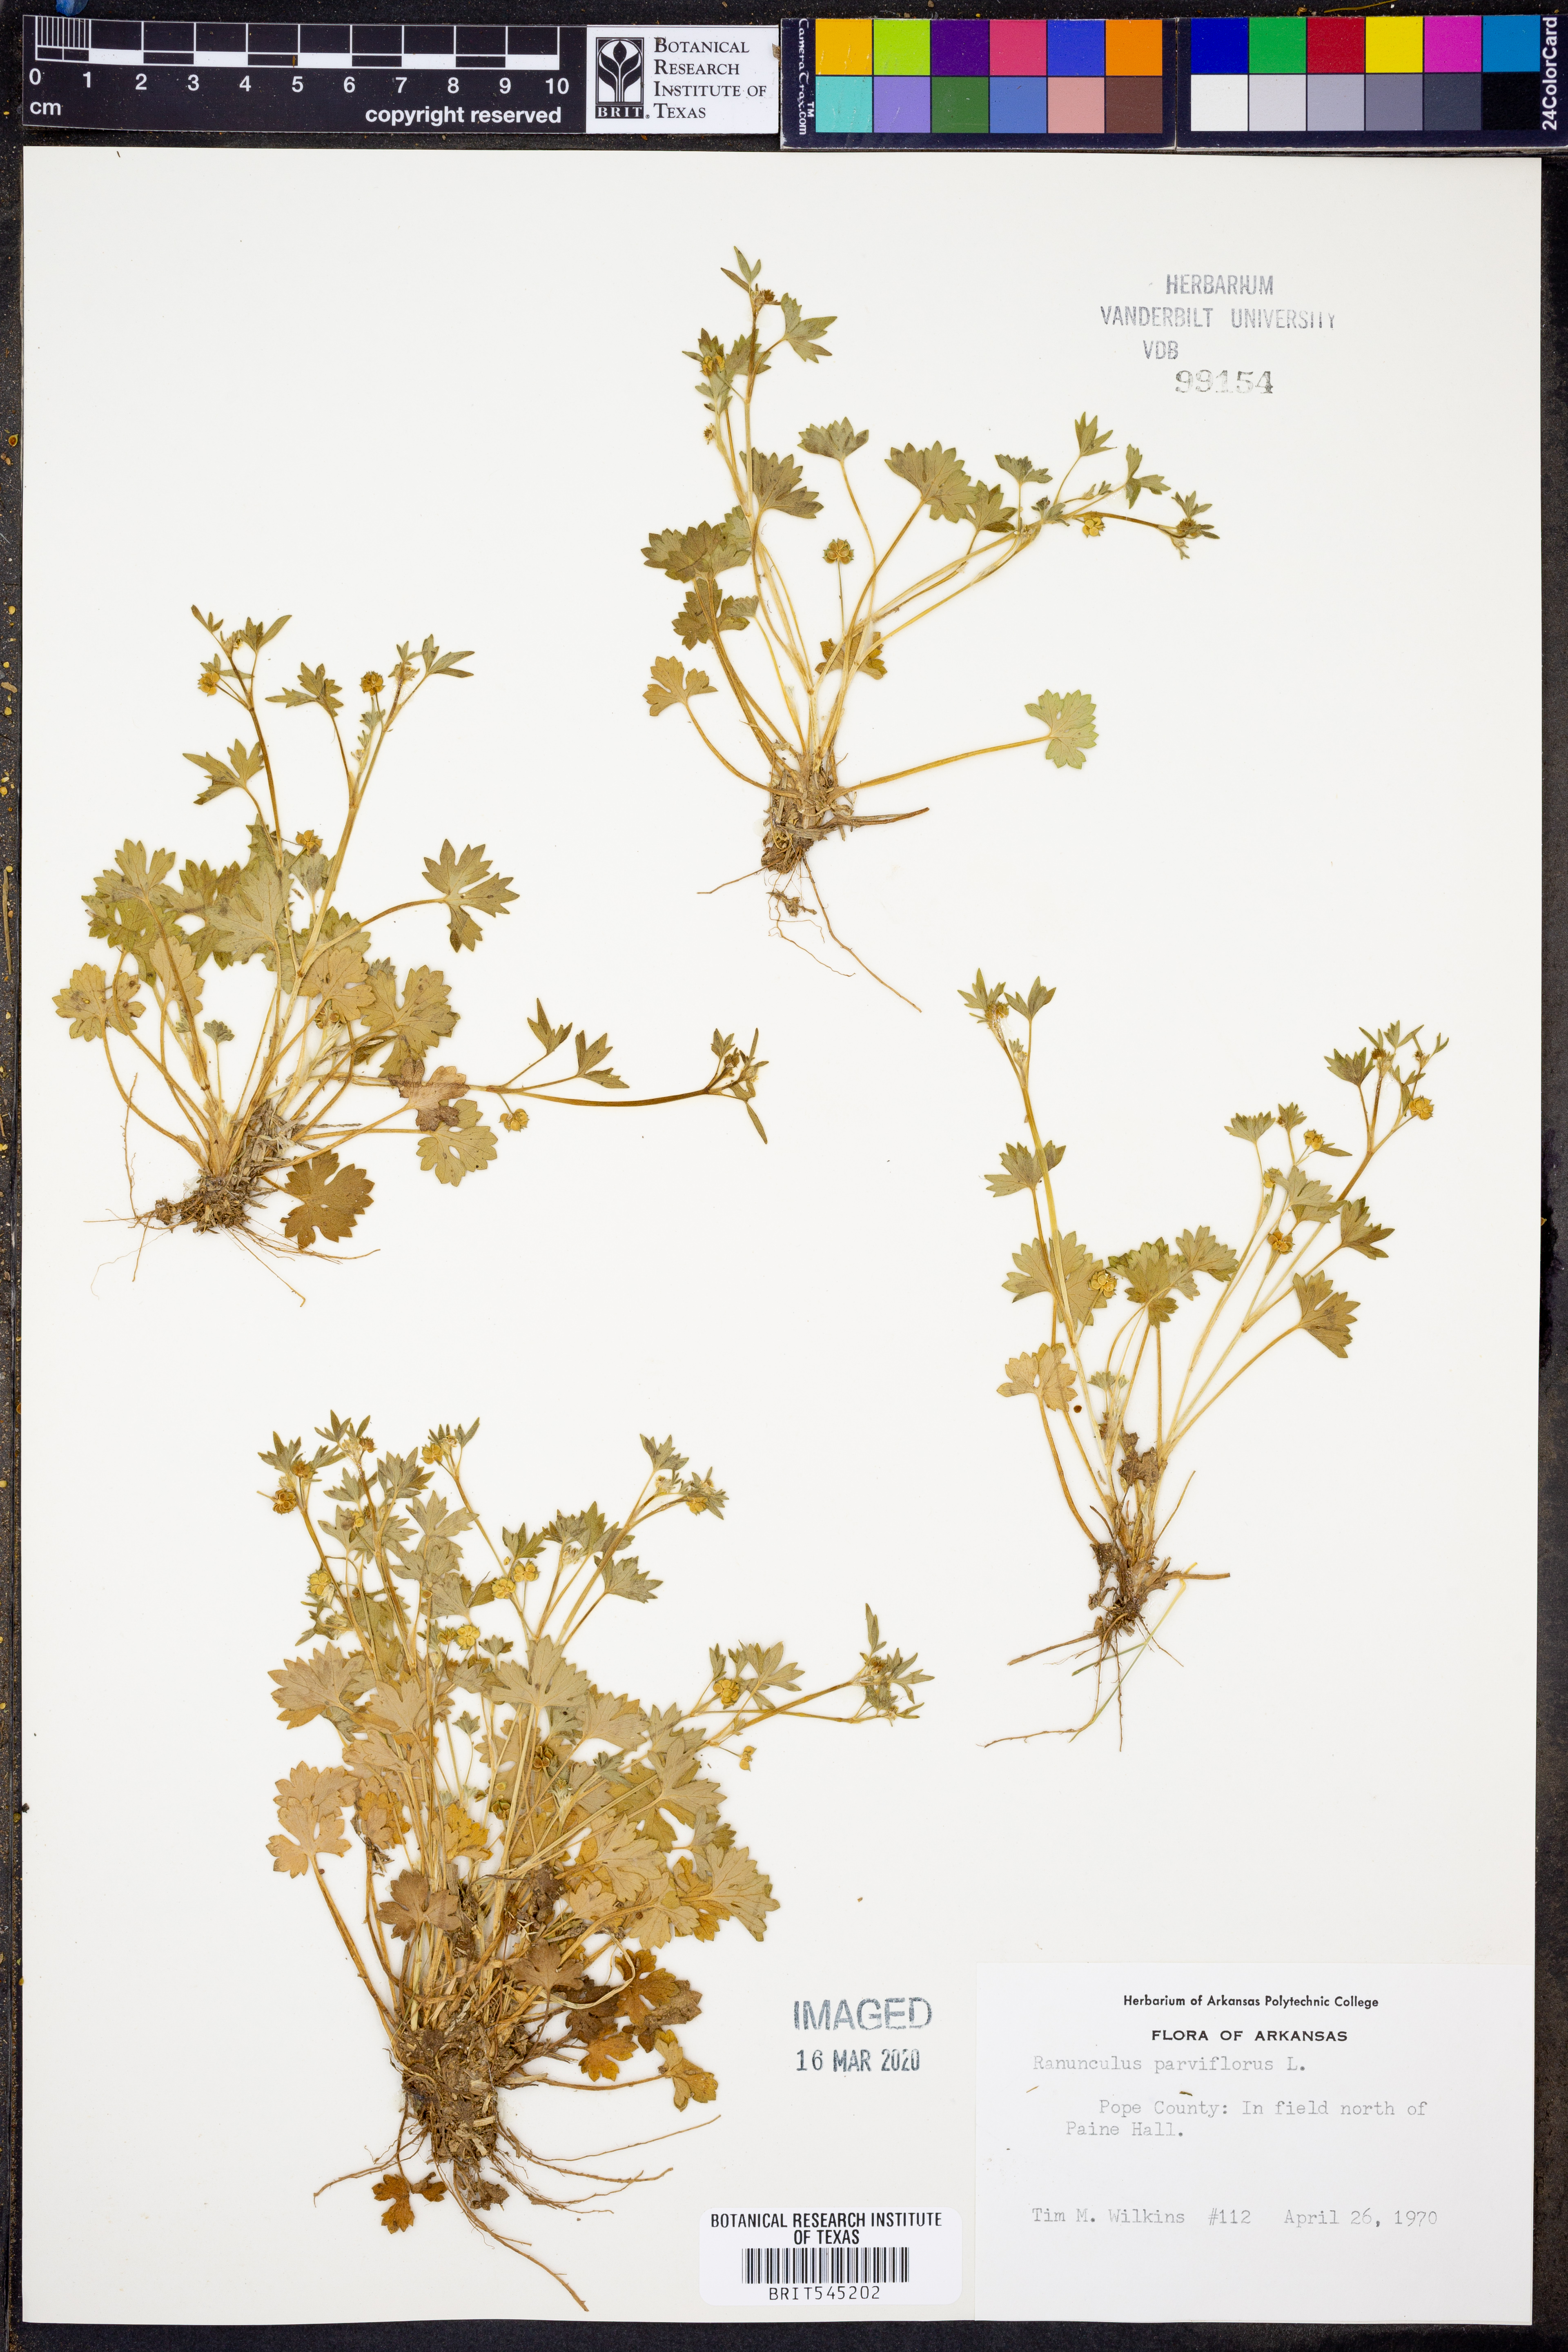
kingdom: Plantae
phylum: Tracheophyta
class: Magnoliopsida
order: Ranunculales
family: Ranunculaceae
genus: Ranunculus
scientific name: Ranunculus parviflorus
